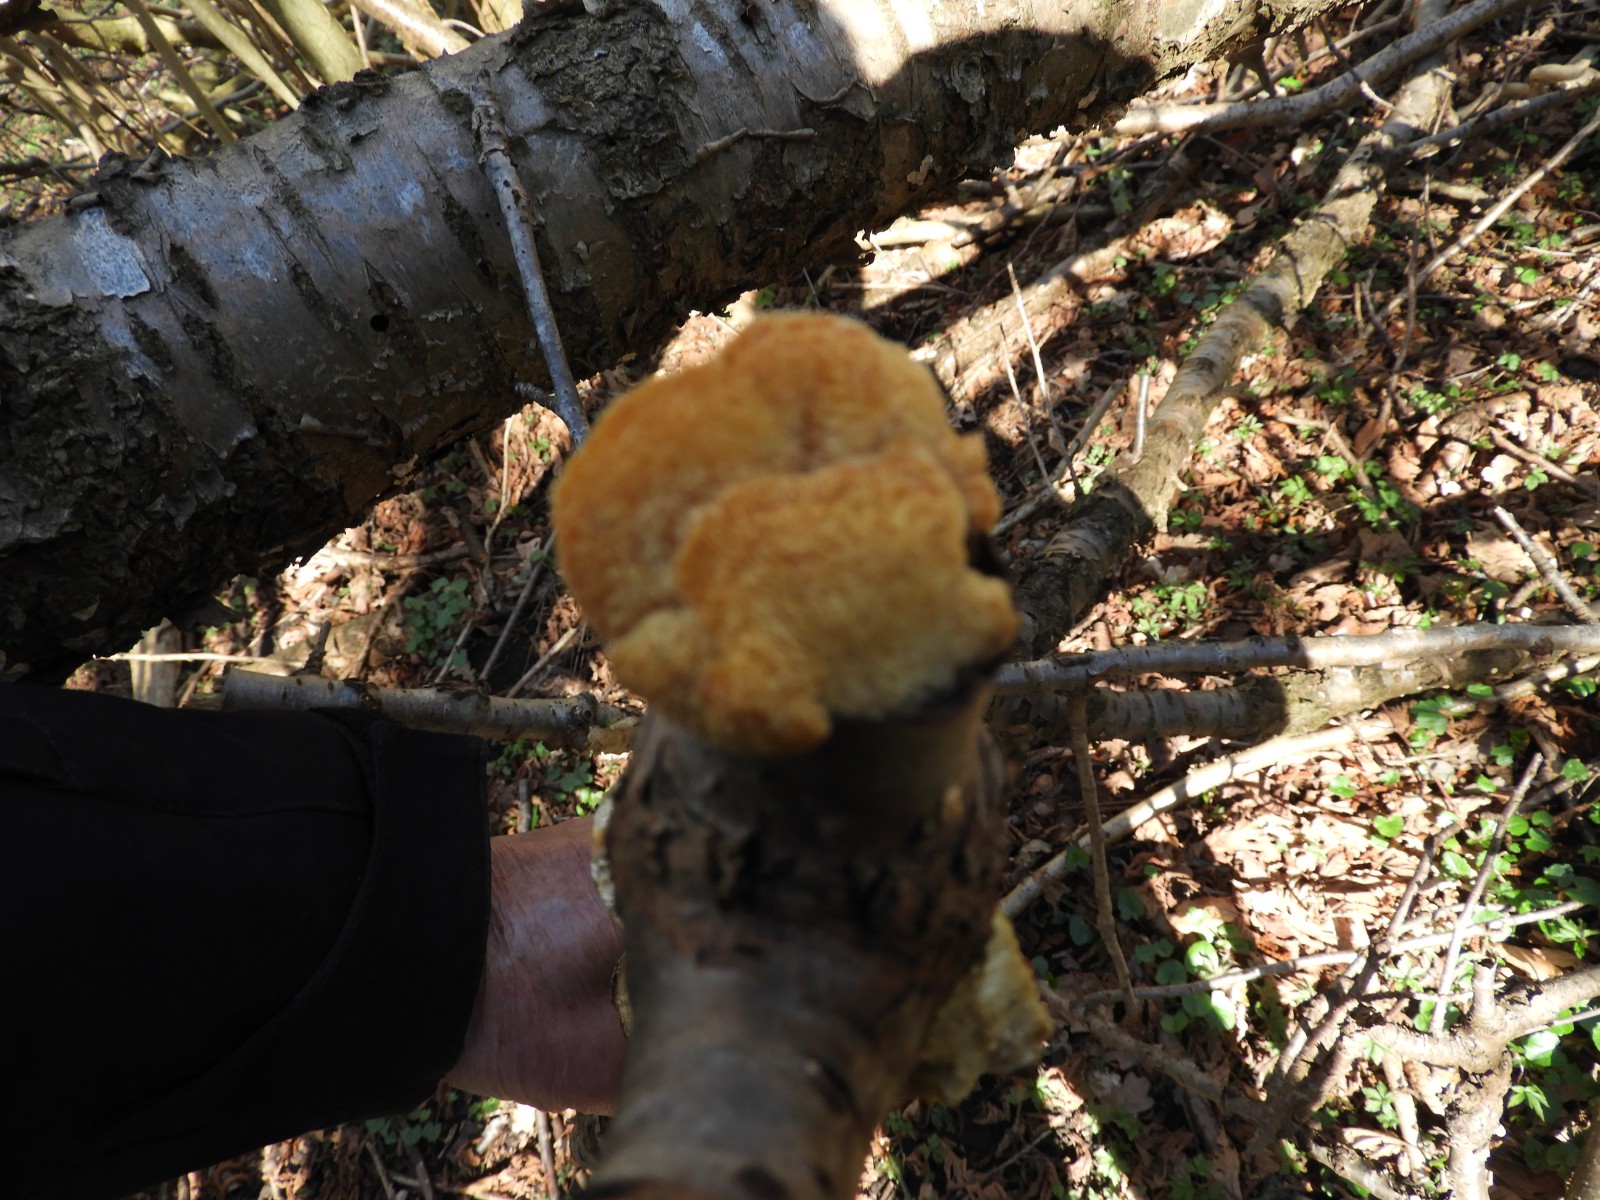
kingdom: Fungi
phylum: Basidiomycota
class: Agaricomycetes
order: Polyporales
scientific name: Polyporales
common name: poresvampordenen
